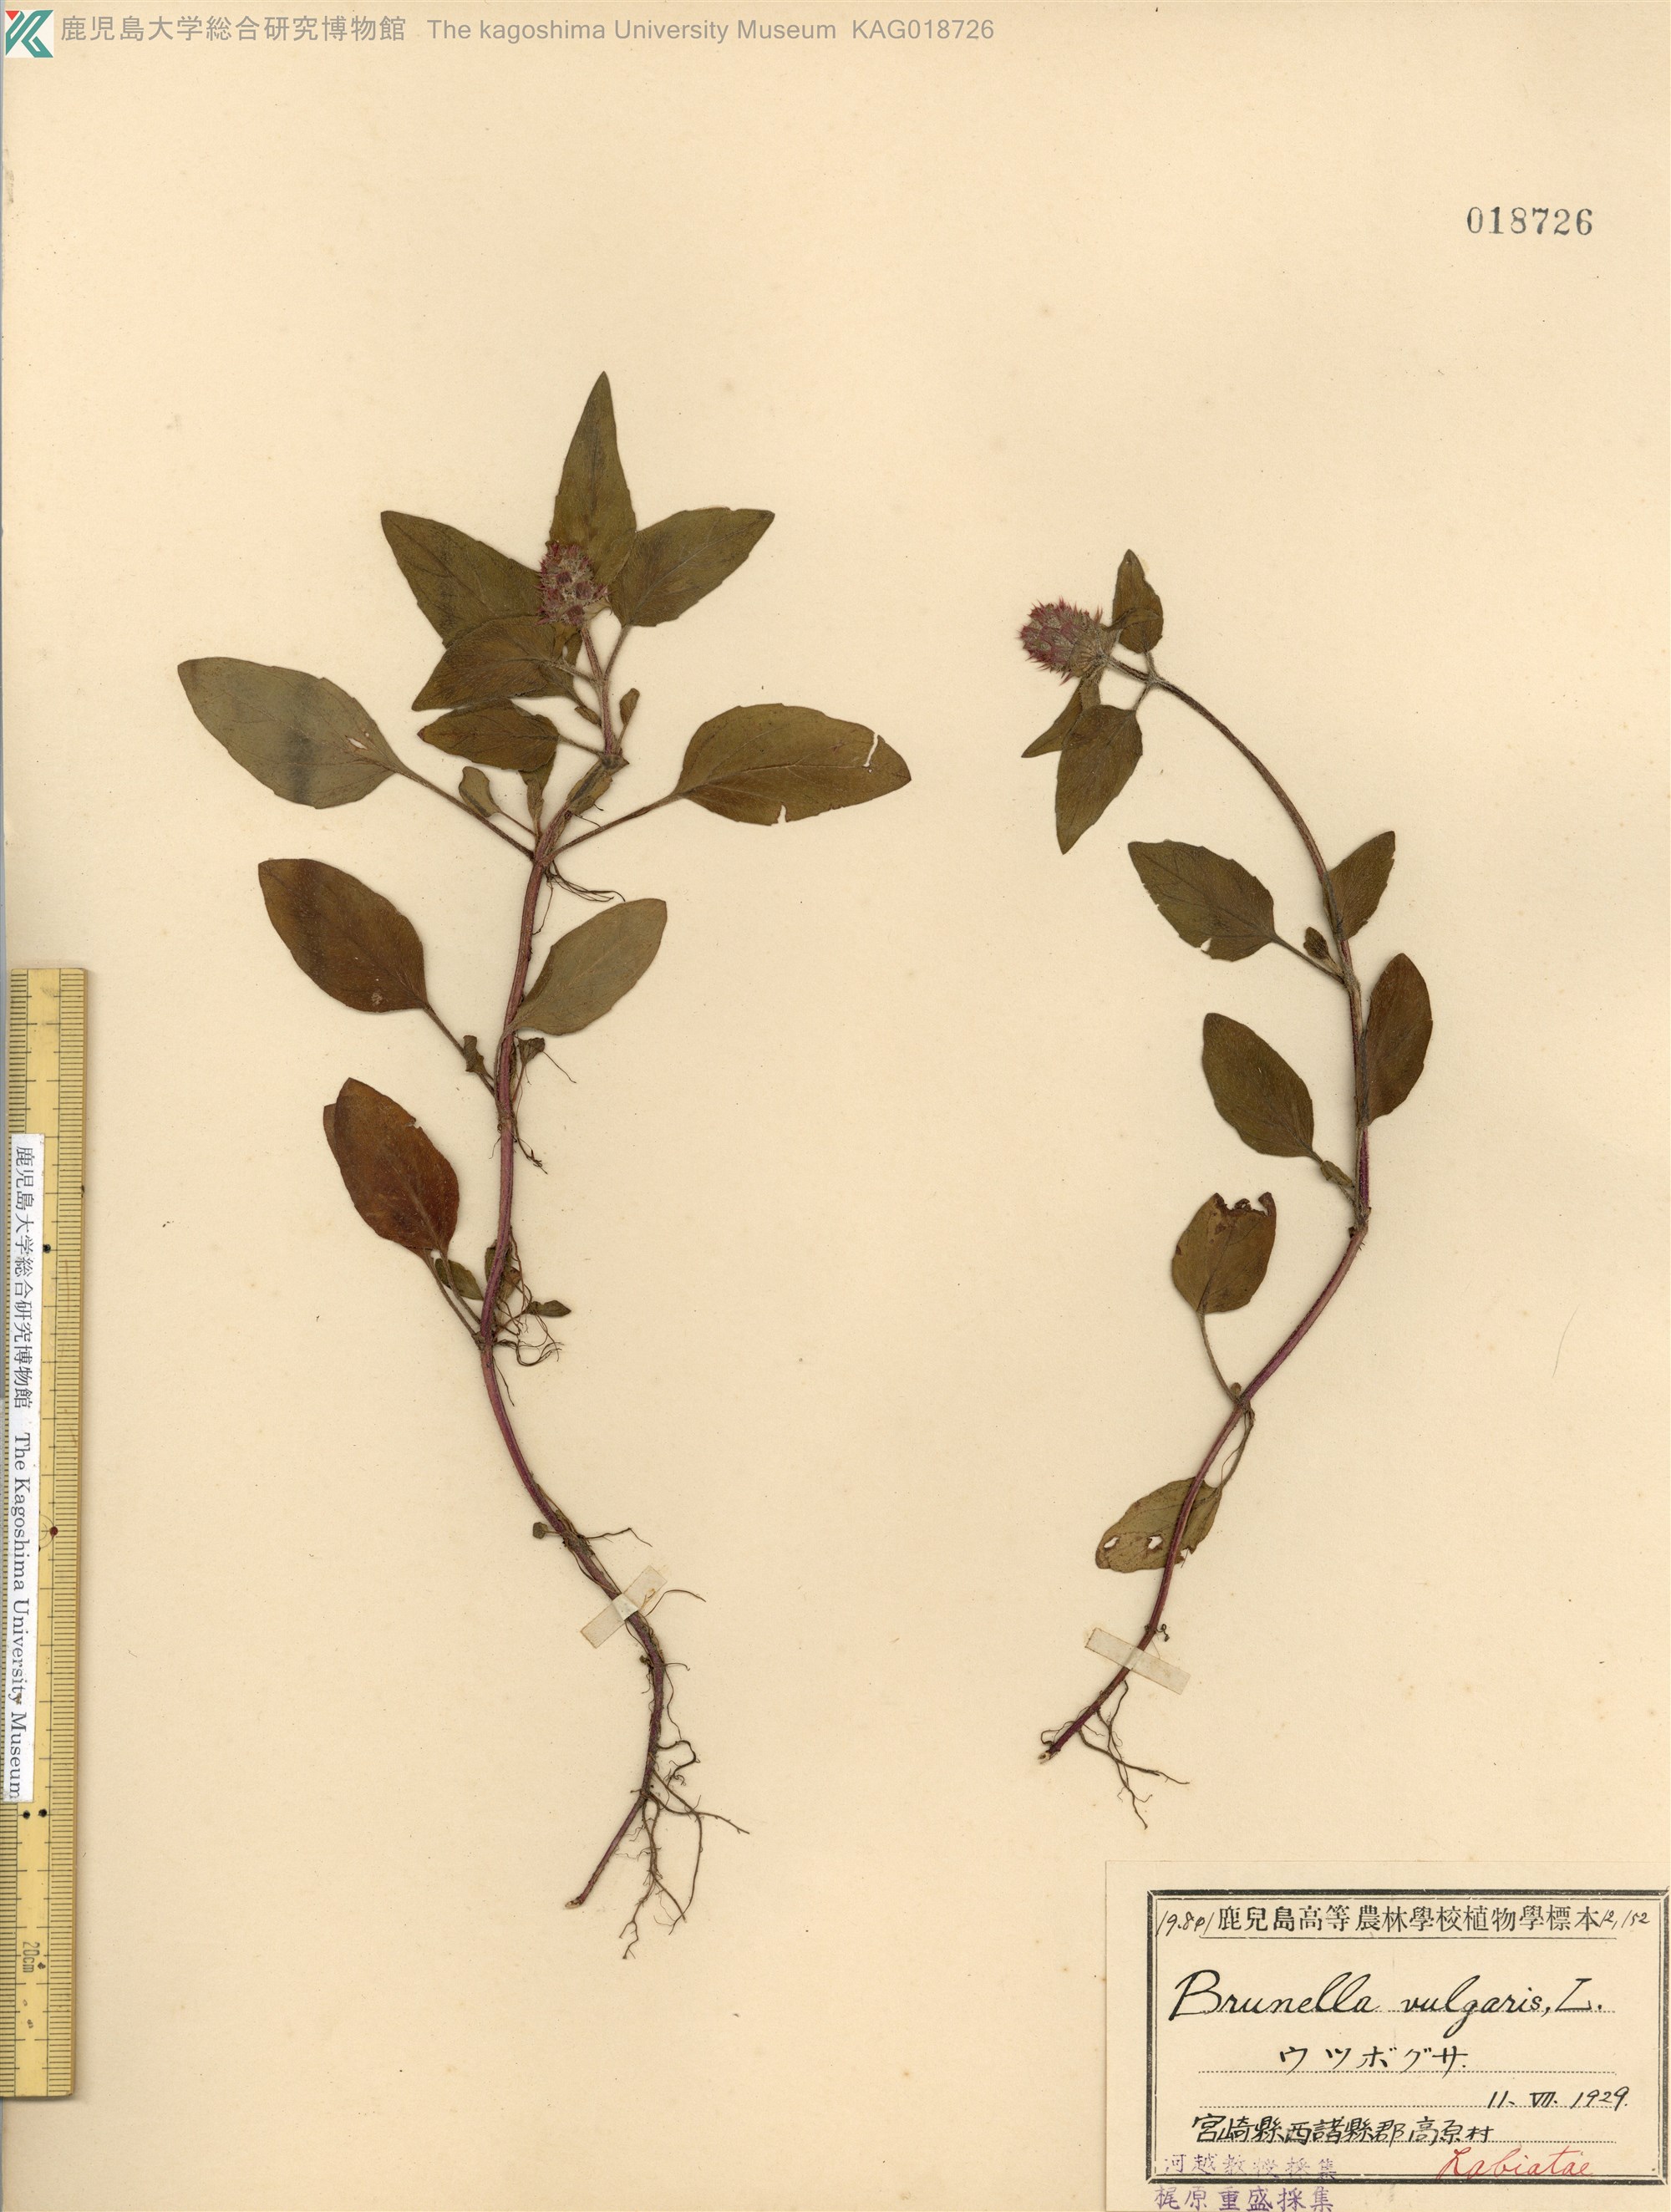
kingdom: Plantae
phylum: Tracheophyta
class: Magnoliopsida
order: Lamiales
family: Lamiaceae
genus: Prunella
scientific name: Prunella vulgaris
